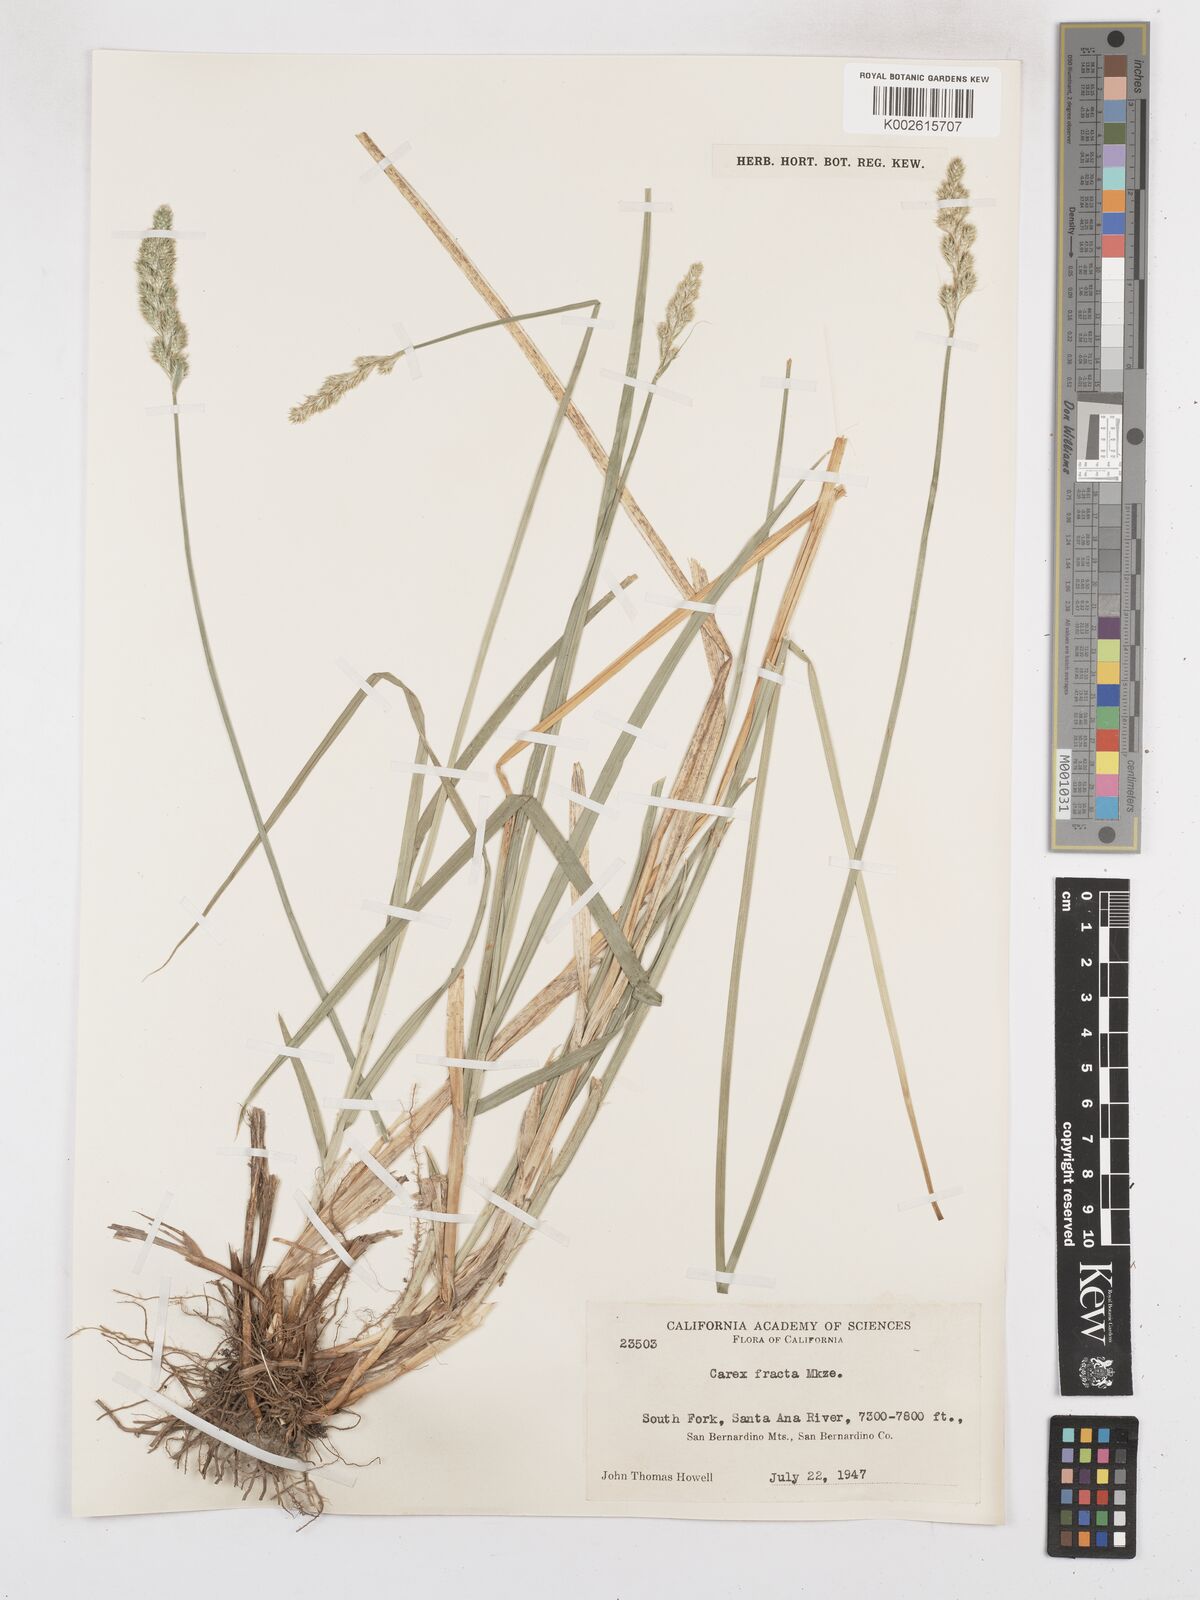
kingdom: Plantae
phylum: Tracheophyta
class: Liliopsida
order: Poales
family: Cyperaceae
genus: Carex
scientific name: Carex fracta
